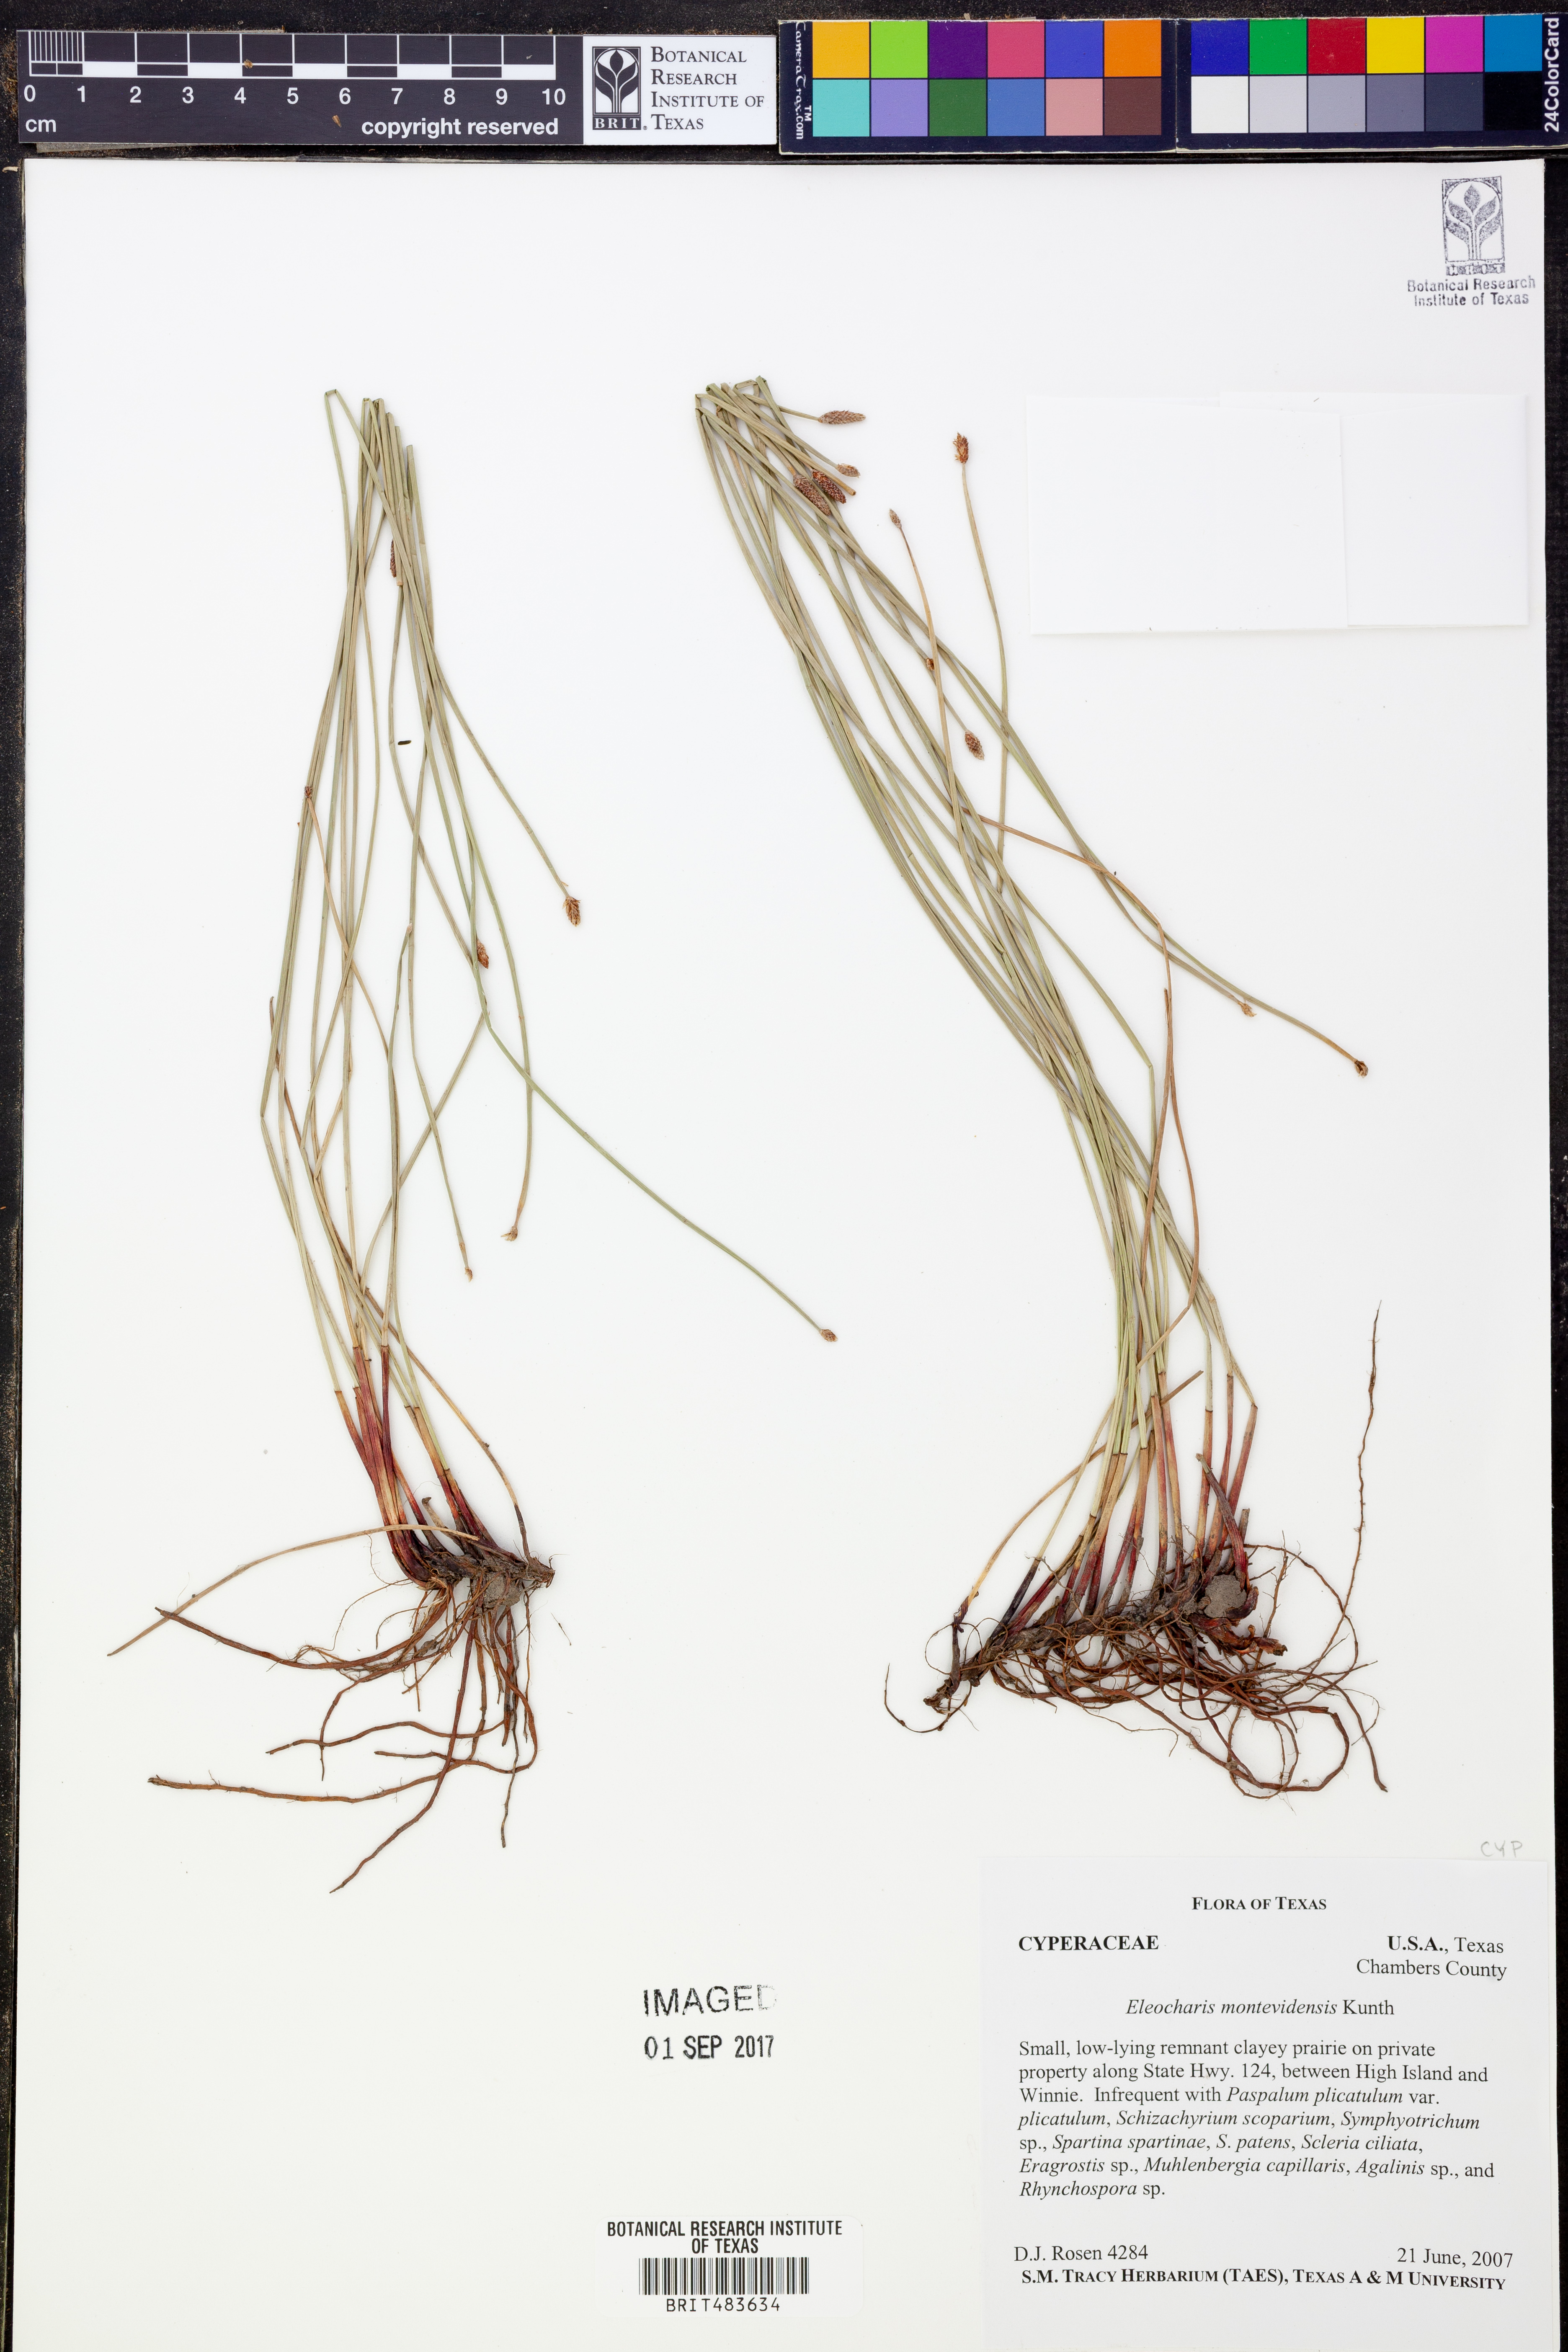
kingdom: Plantae
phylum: Tracheophyta
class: Liliopsida
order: Poales
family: Cyperaceae
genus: Eleocharis
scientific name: Eleocharis montevidensis
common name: Sand spike-rush
